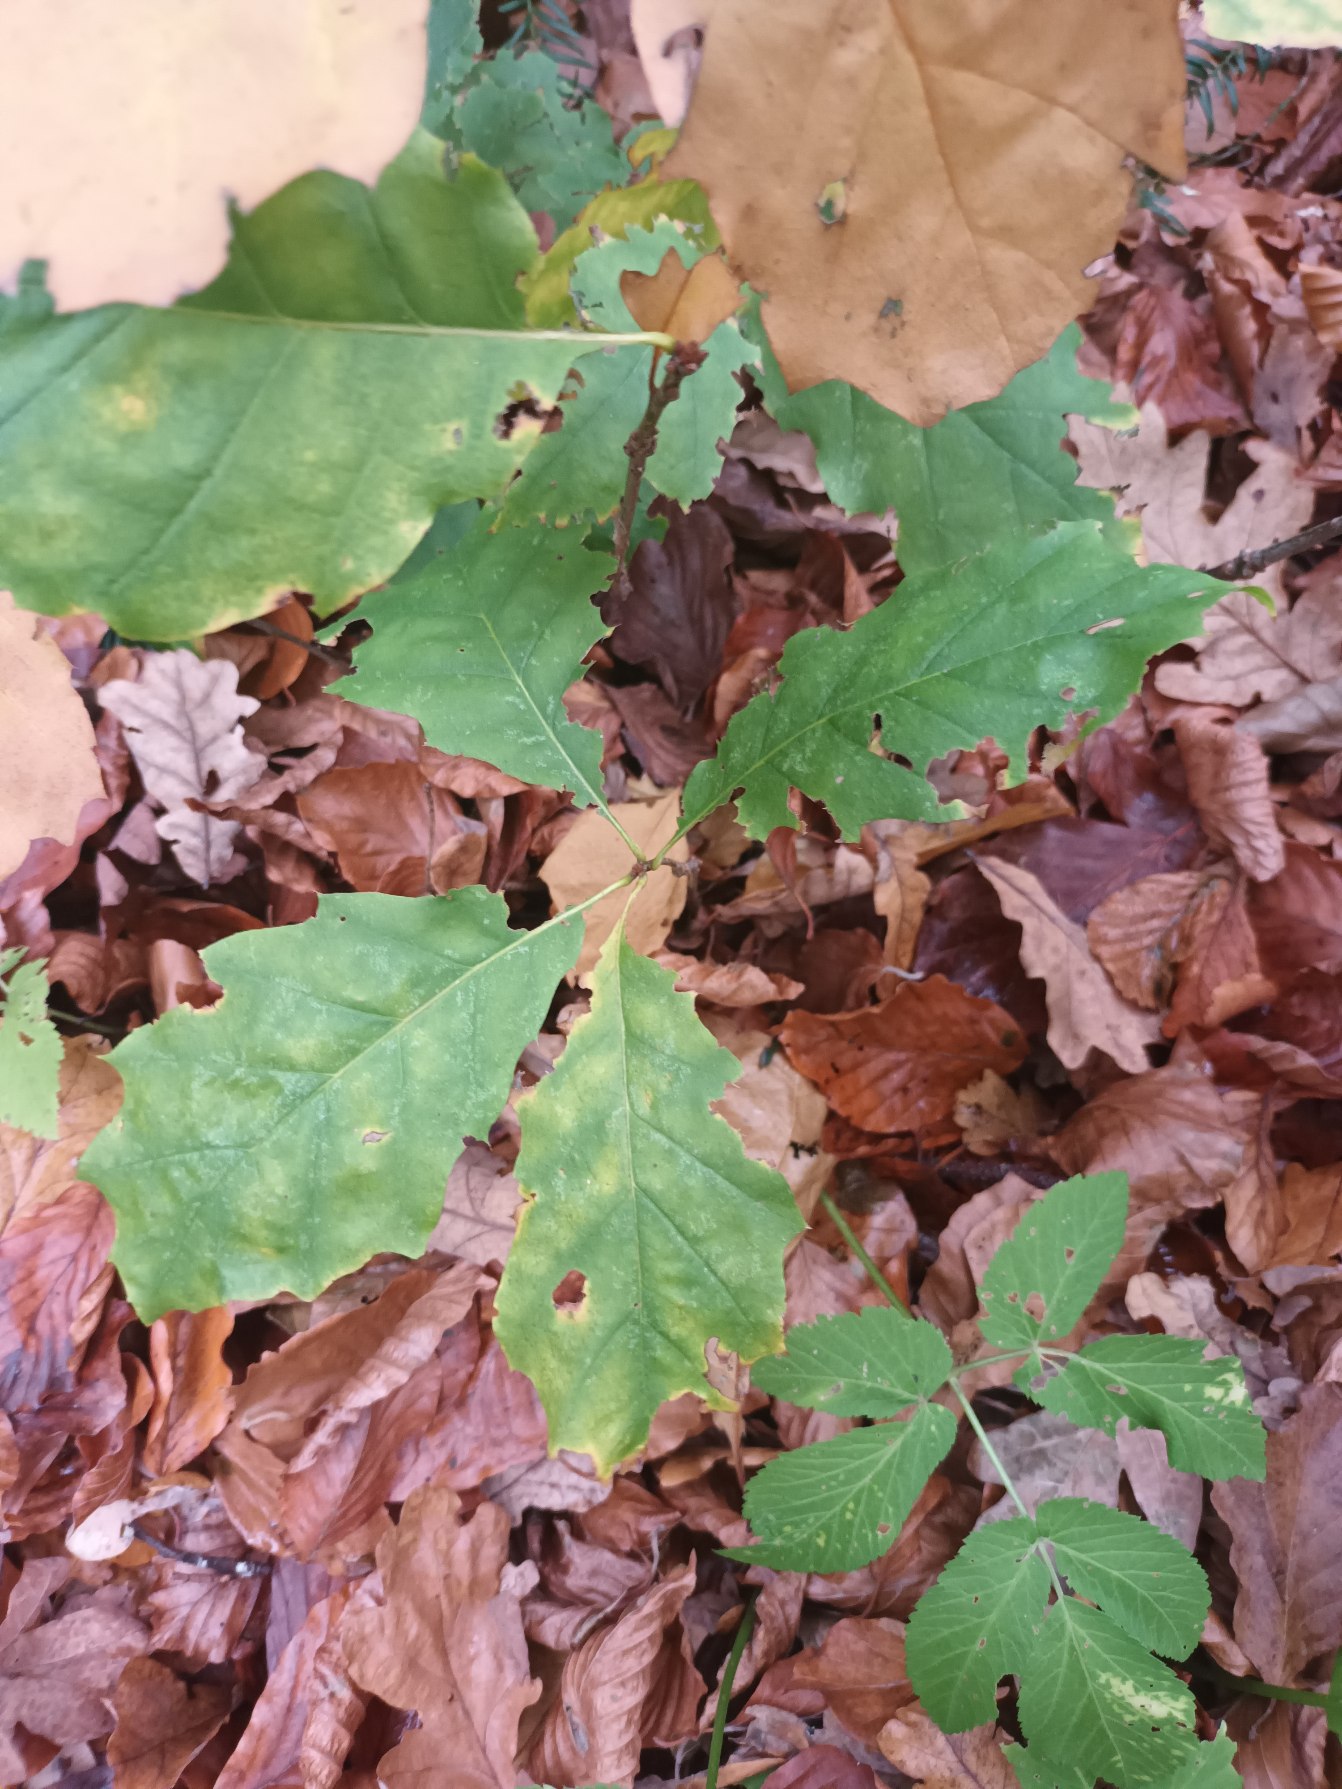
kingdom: Plantae
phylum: Tracheophyta
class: Magnoliopsida
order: Fagales
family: Fagaceae
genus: Quercus
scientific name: Quercus rubra
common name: Rød-eg
